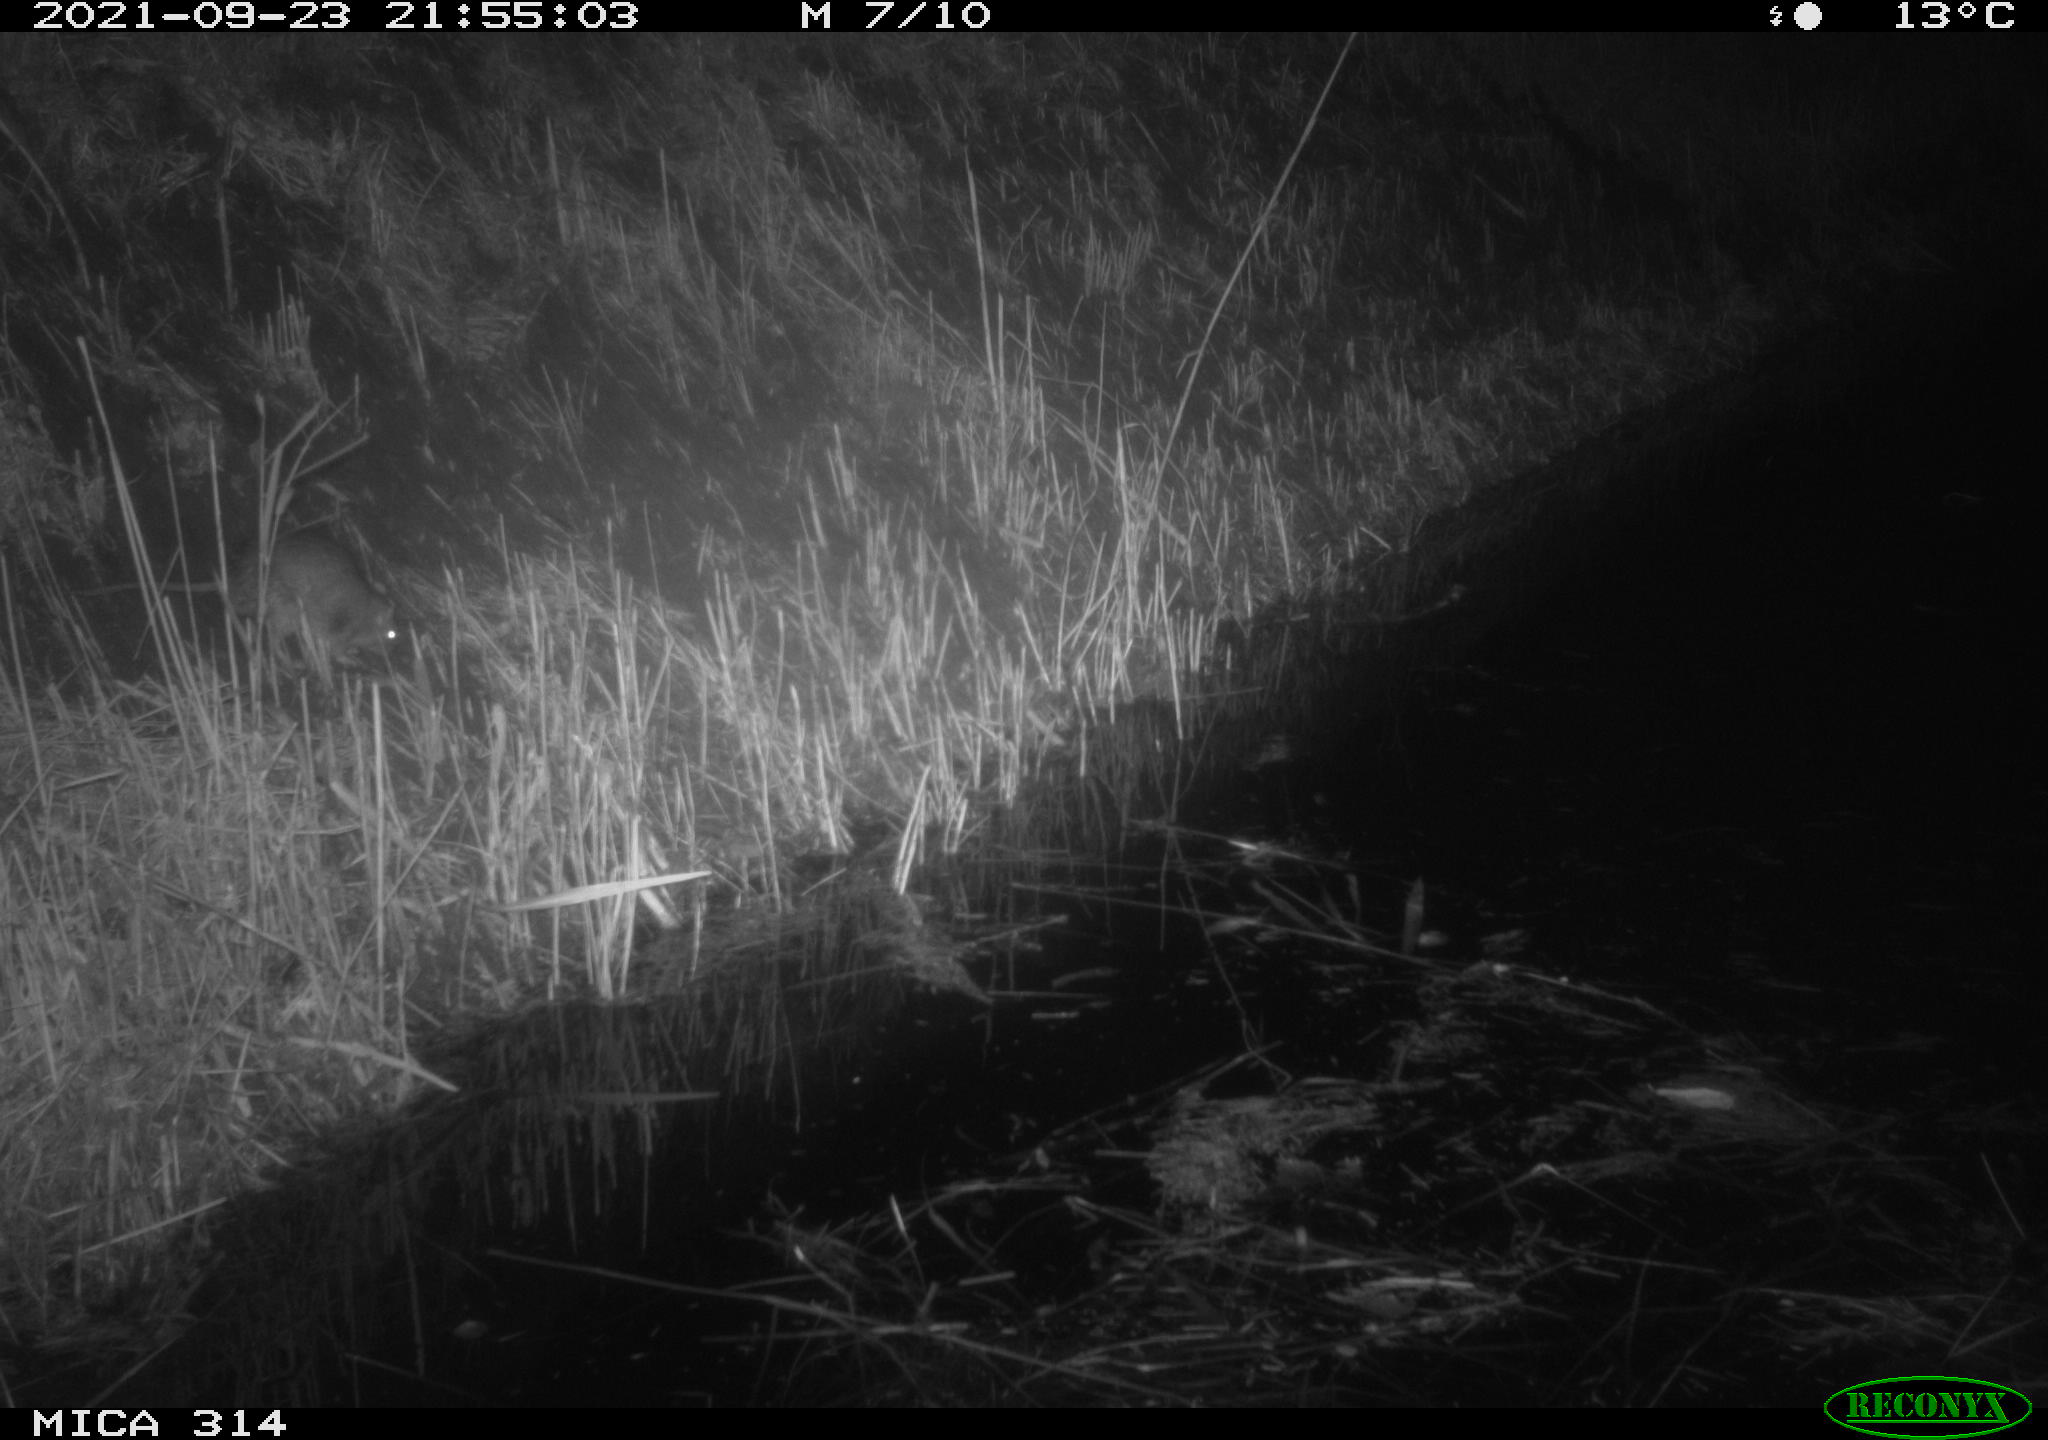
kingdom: Animalia
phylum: Chordata
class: Mammalia
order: Rodentia
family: Muridae
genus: Rattus
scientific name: Rattus norvegicus
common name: Brown rat
